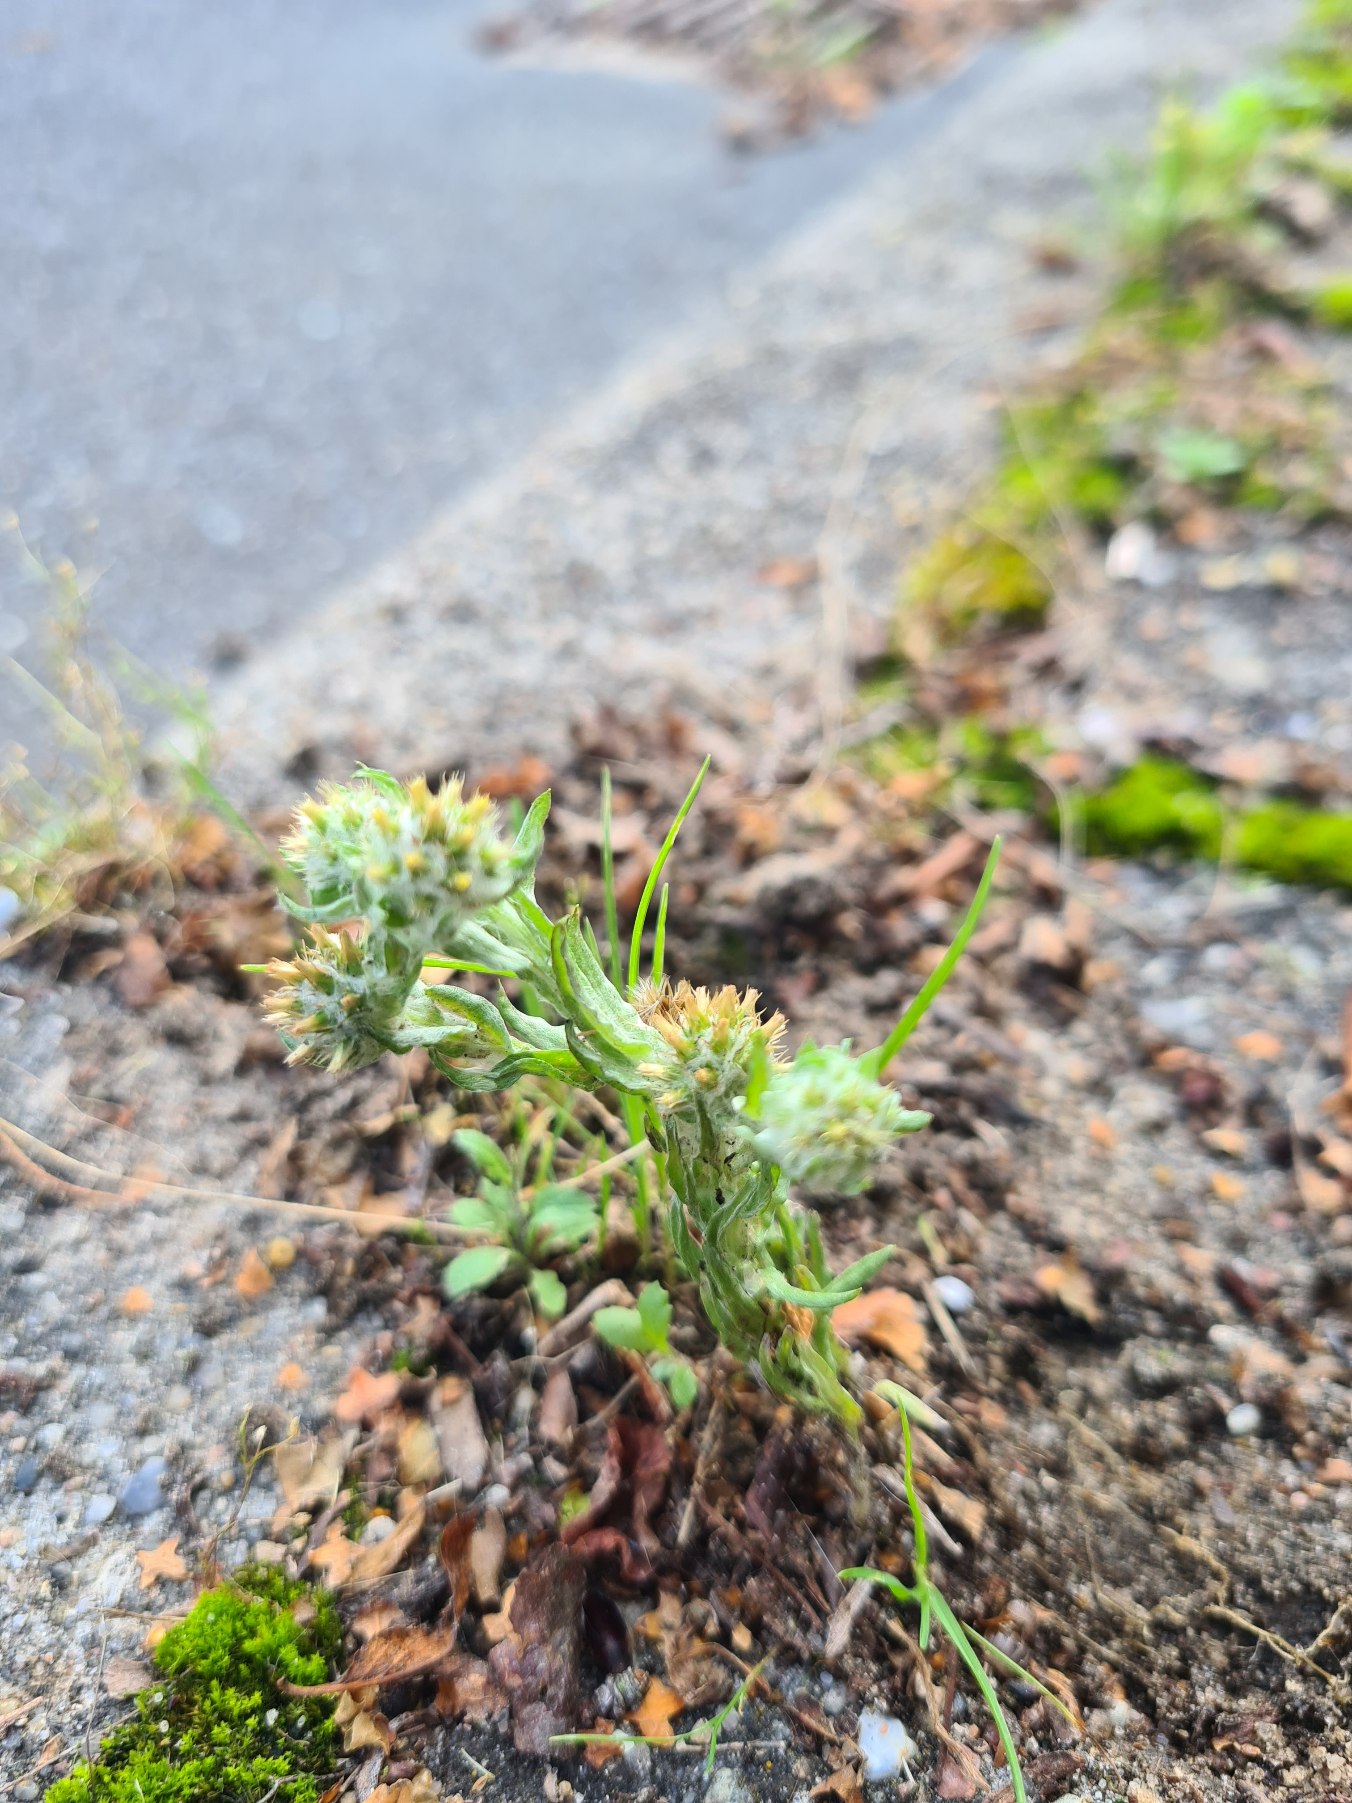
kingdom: Plantae
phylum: Tracheophyta
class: Magnoliopsida
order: Asterales
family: Asteraceae
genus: Filago
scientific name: Filago germanica
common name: Kugle-museurt
